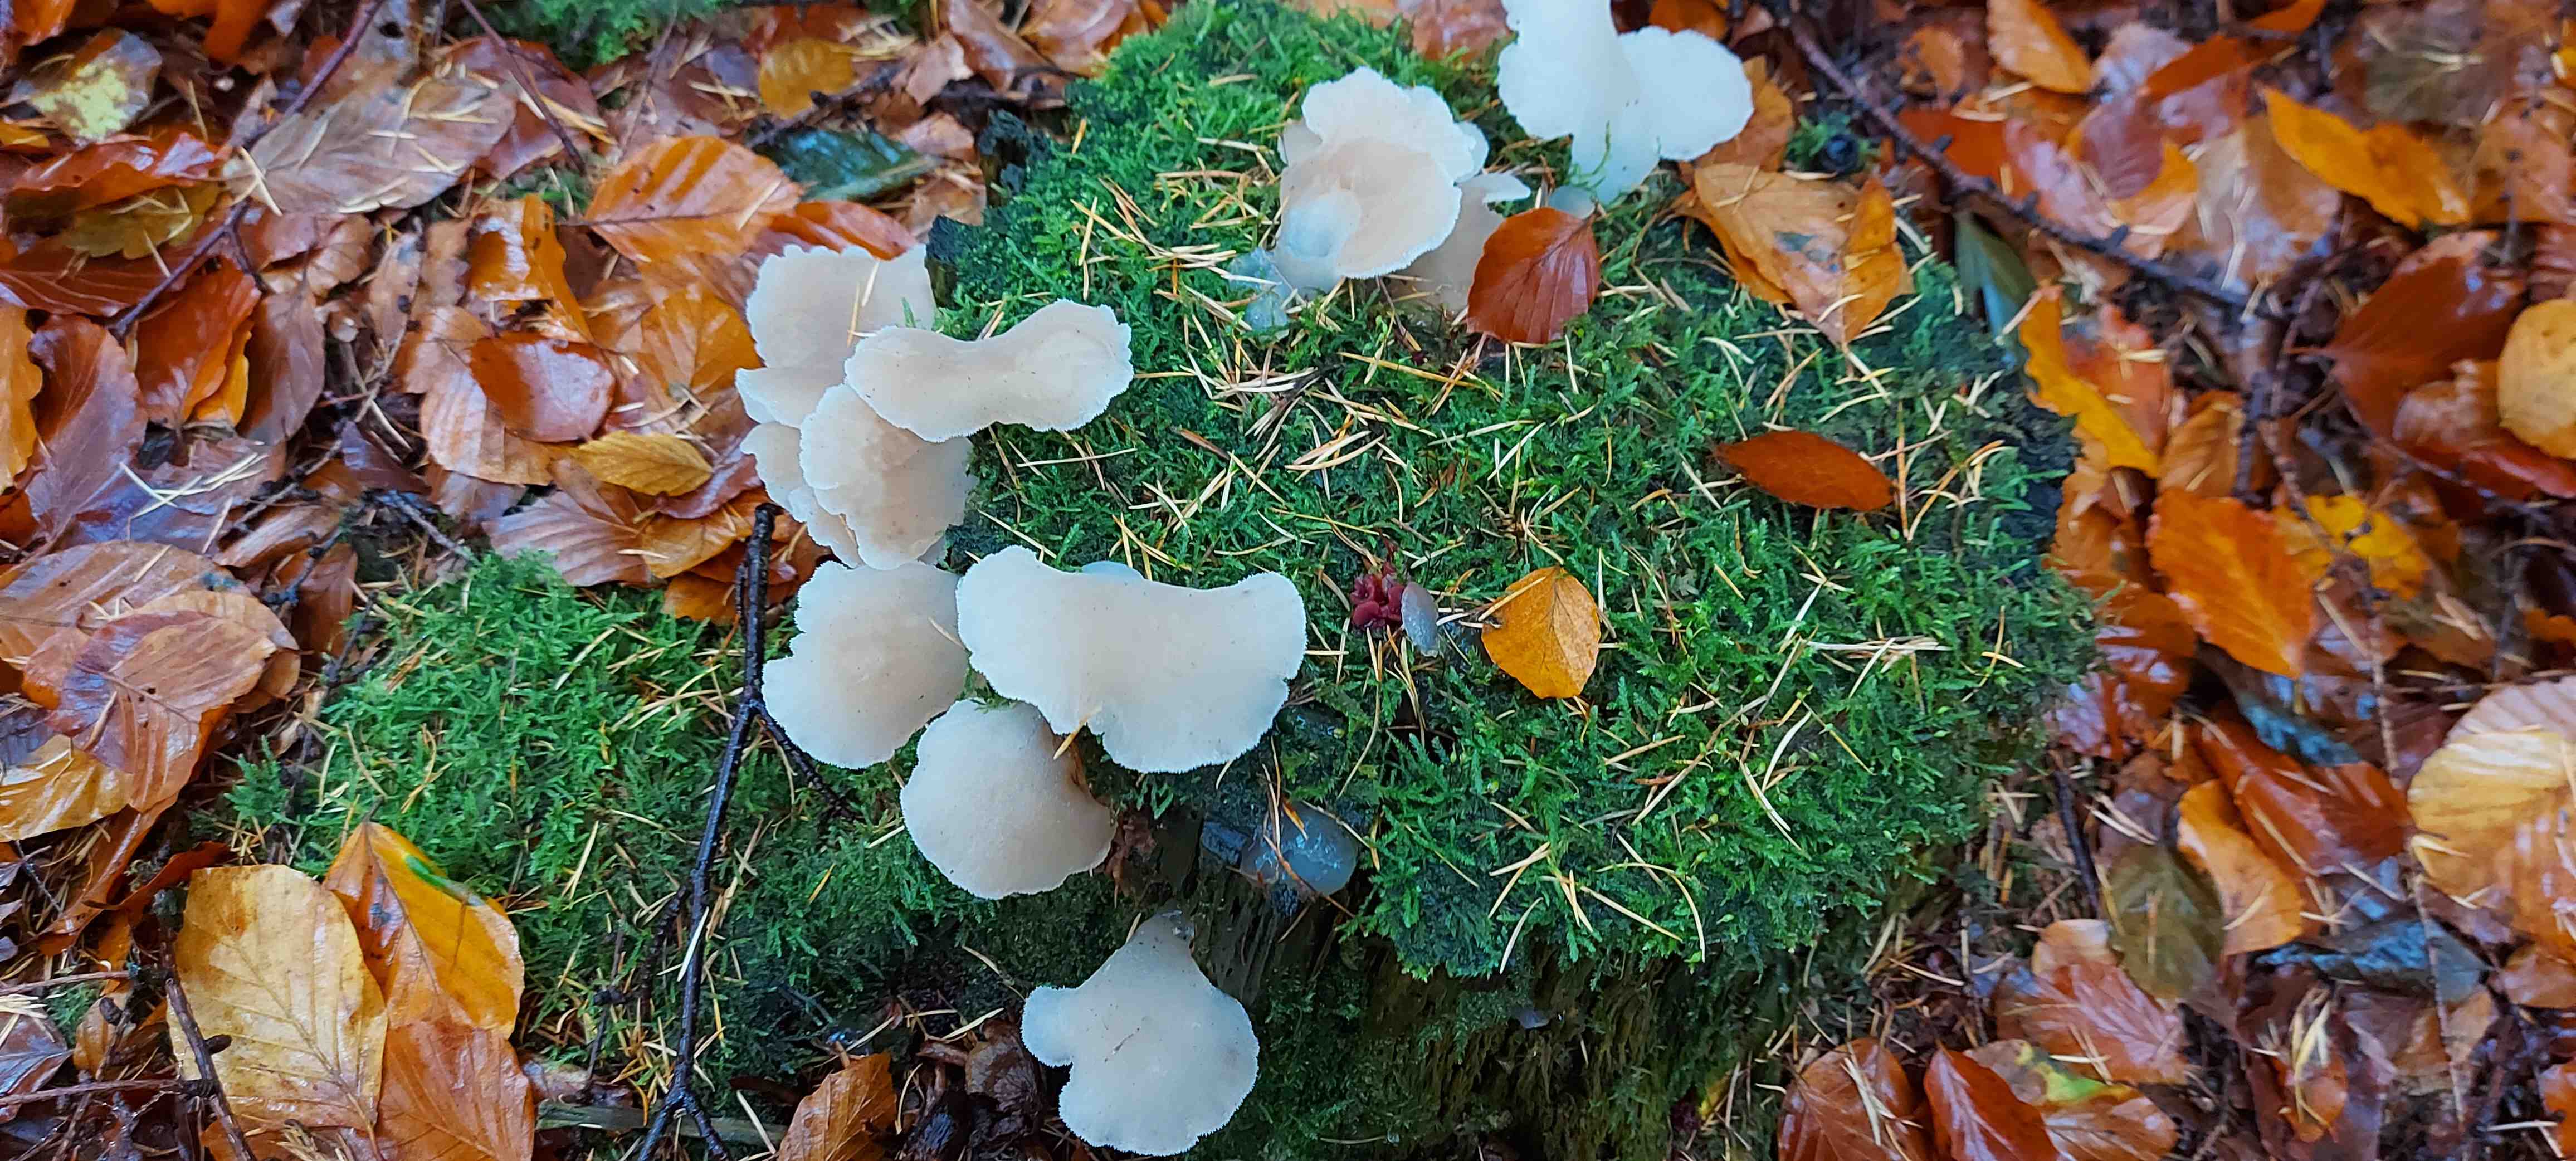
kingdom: Fungi
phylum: Basidiomycota
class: Agaricomycetes
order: Auriculariales
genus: Pseudohydnum
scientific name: Pseudohydnum gelatinosum
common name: bævretand
